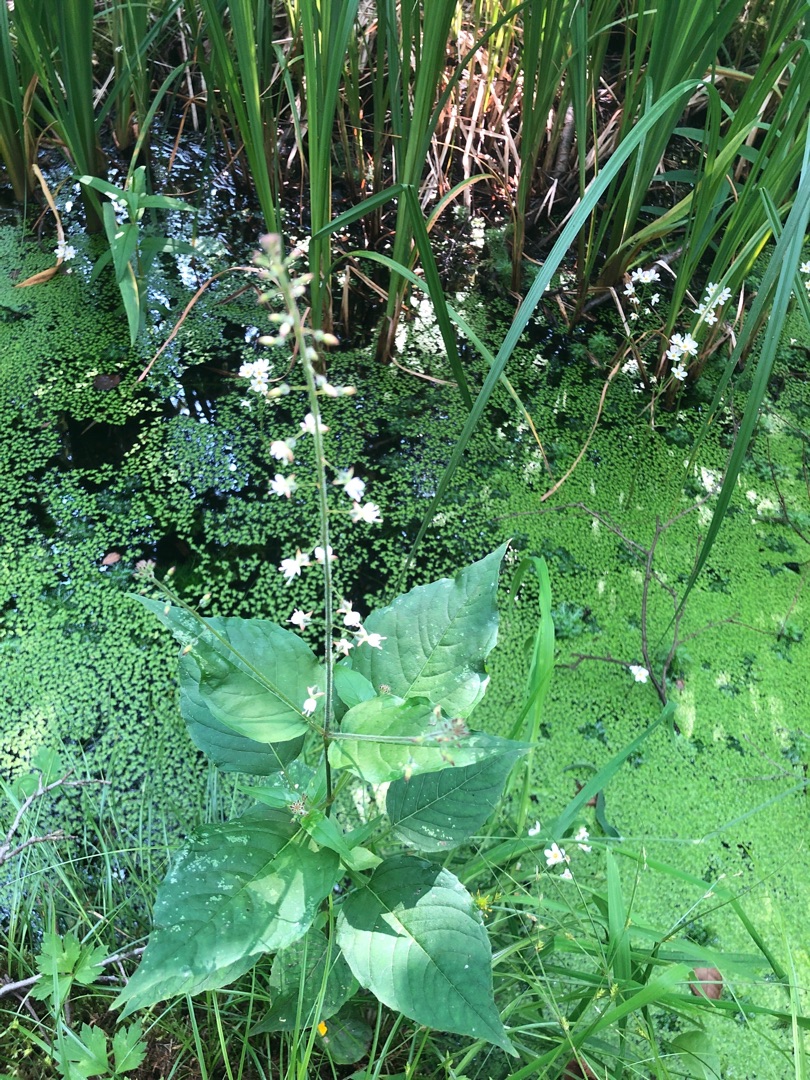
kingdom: Plantae
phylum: Tracheophyta
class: Magnoliopsida
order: Myrtales
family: Onagraceae
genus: Circaea
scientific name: Circaea lutetiana
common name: Dunet steffensurt
